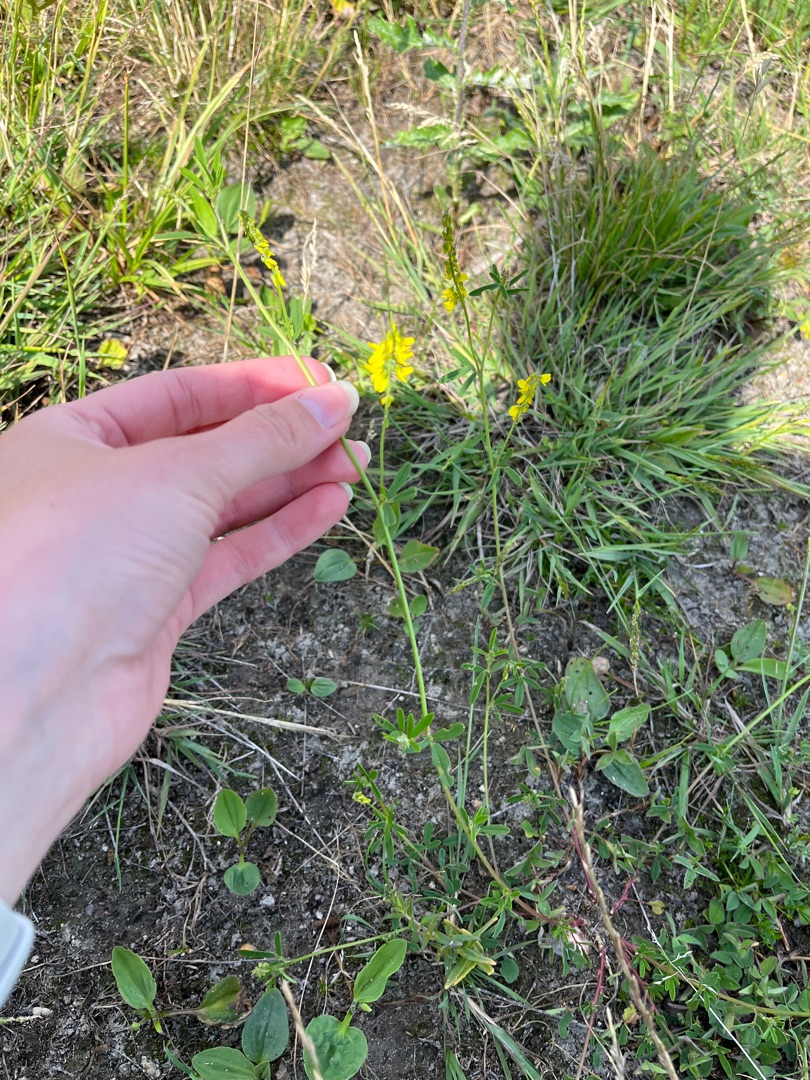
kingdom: Plantae
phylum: Tracheophyta
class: Magnoliopsida
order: Fabales
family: Fabaceae
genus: Melilotus
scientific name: Melilotus altissimus
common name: Høj stenkløver
